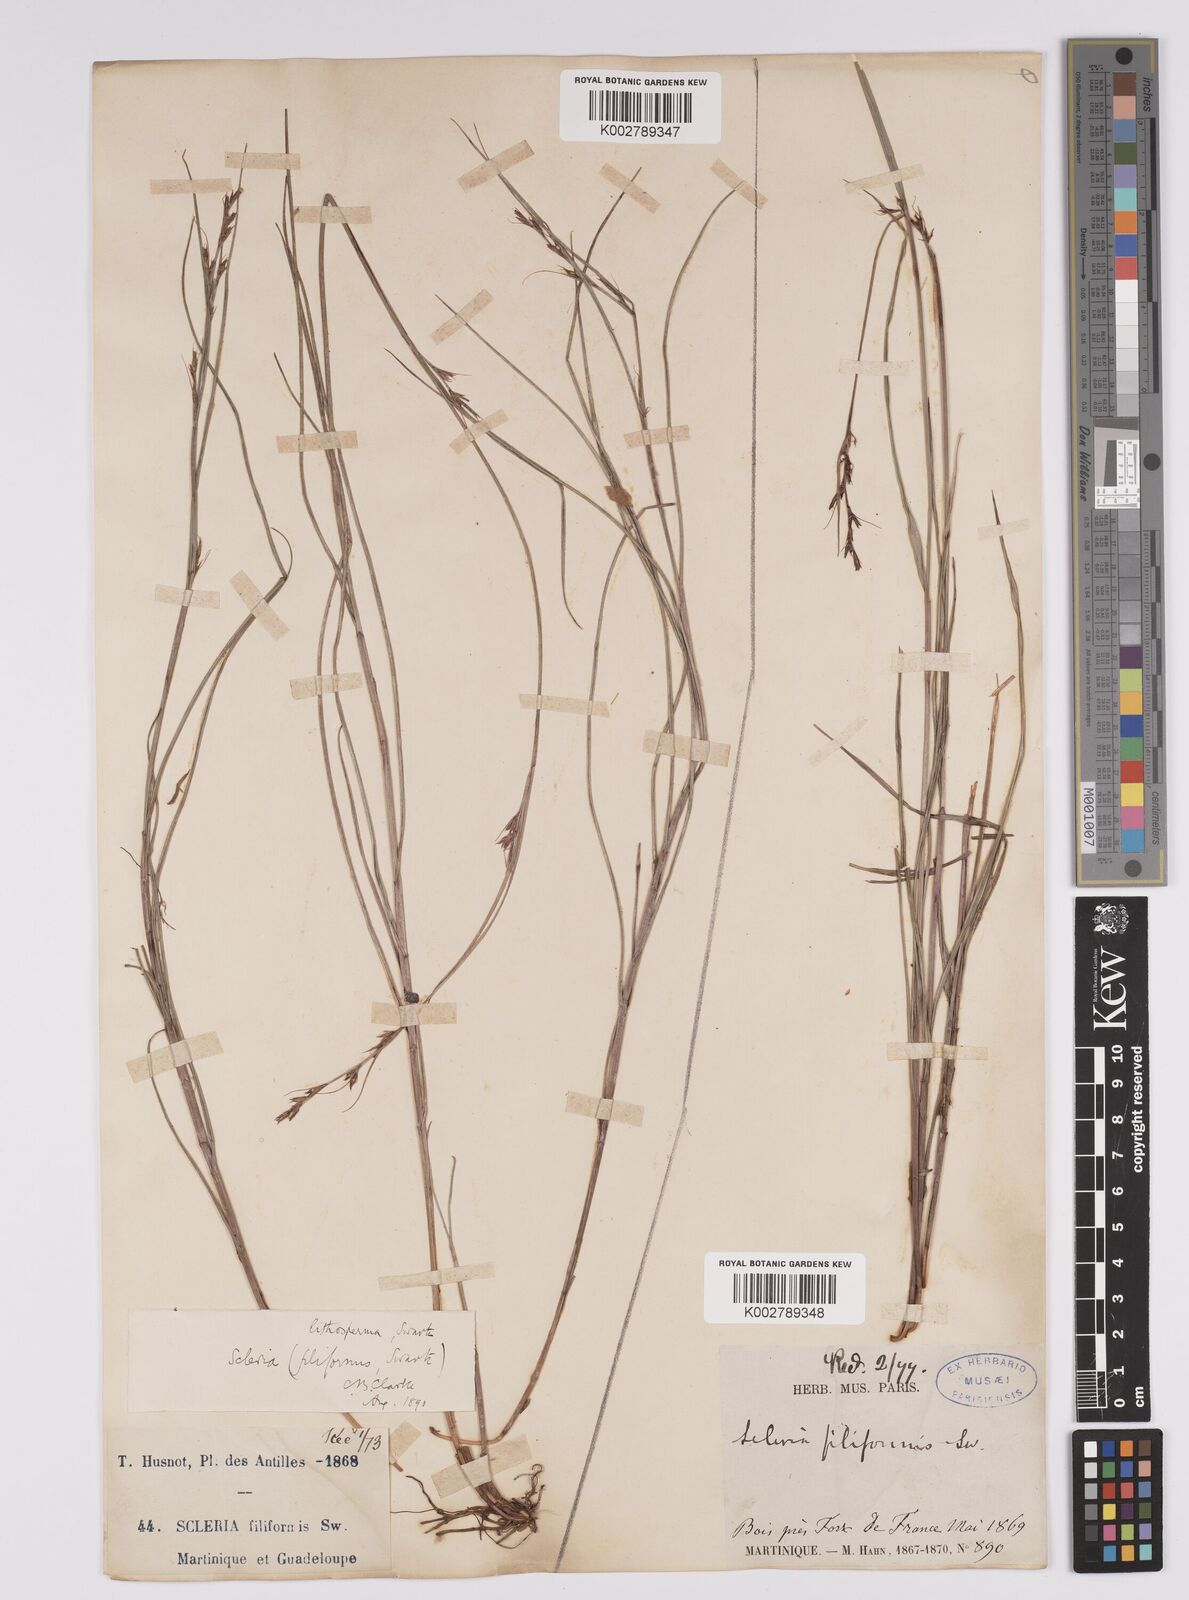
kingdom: Plantae
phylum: Tracheophyta
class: Liliopsida
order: Poales
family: Cyperaceae
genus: Scleria
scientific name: Scleria lithosperma
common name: Florida keys nut-rush
